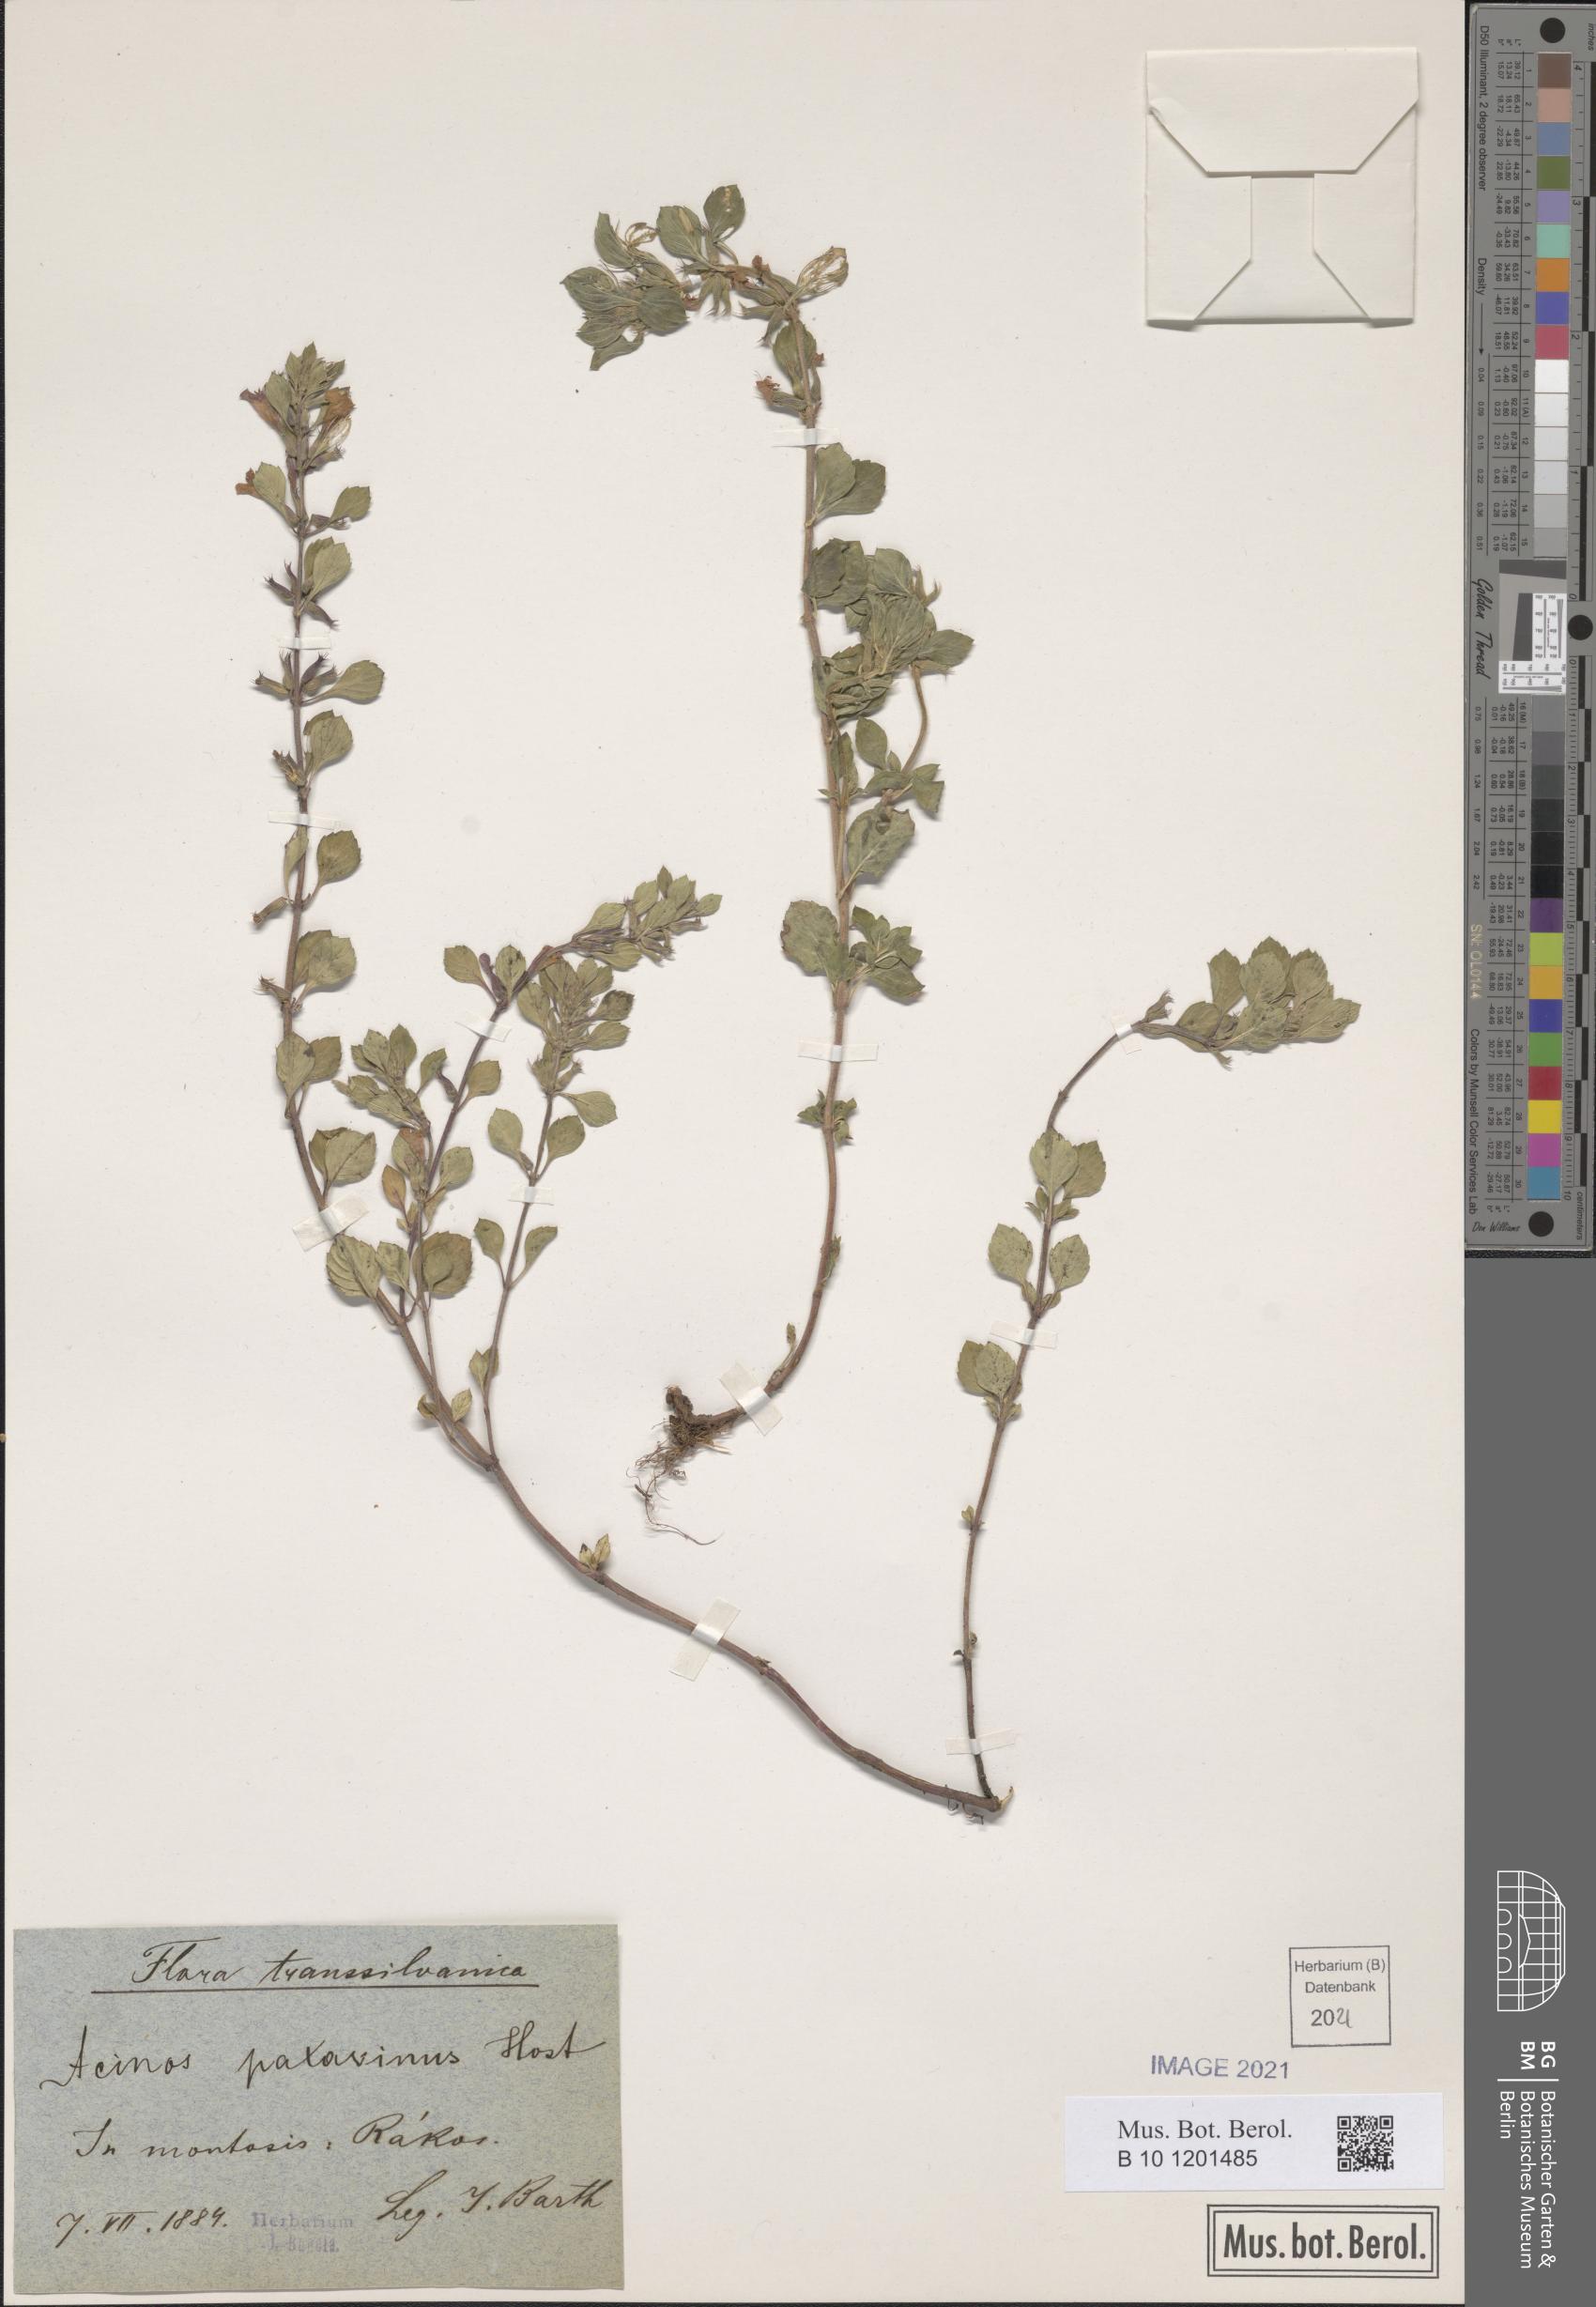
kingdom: Plantae
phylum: Tracheophyta
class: Magnoliopsida
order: Lamiales
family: Lamiaceae
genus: Clinopodium
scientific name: Clinopodium alpinum
